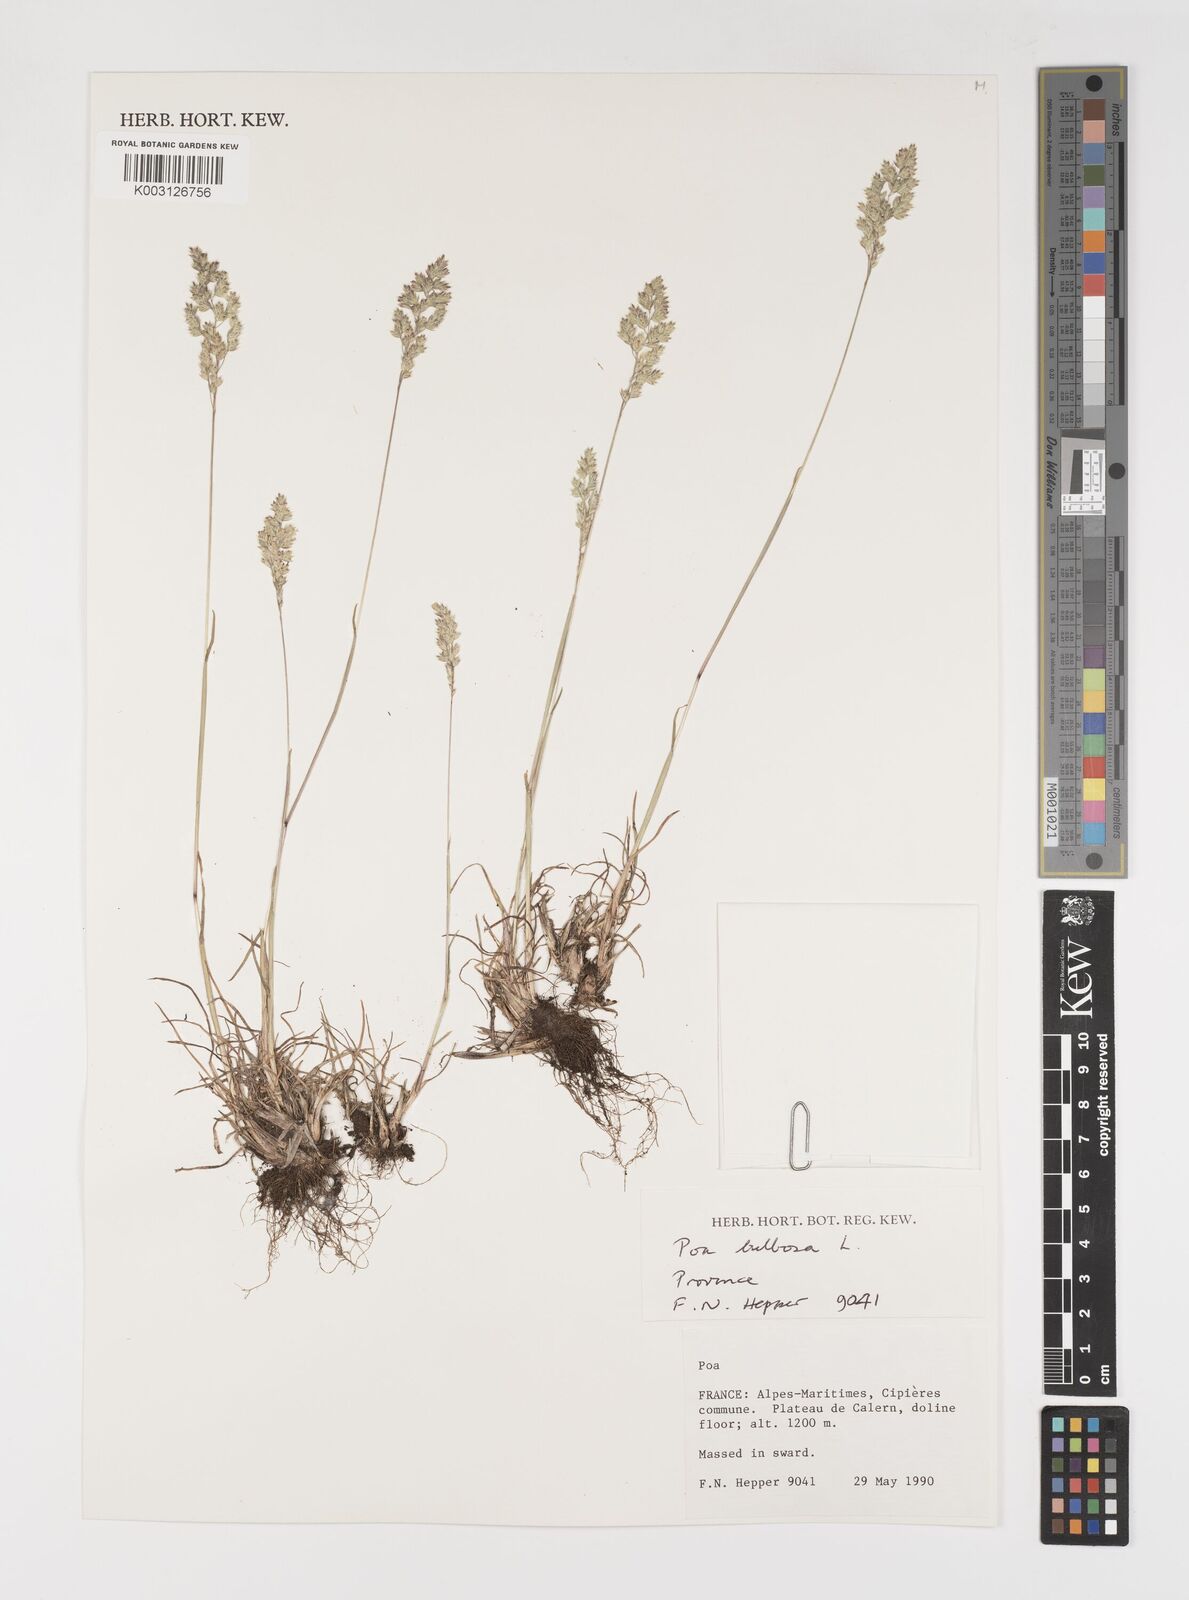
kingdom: Plantae
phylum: Tracheophyta
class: Liliopsida
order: Poales
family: Poaceae
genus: Poa
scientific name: Poa bulbosa
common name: Bulbous bluegrass
